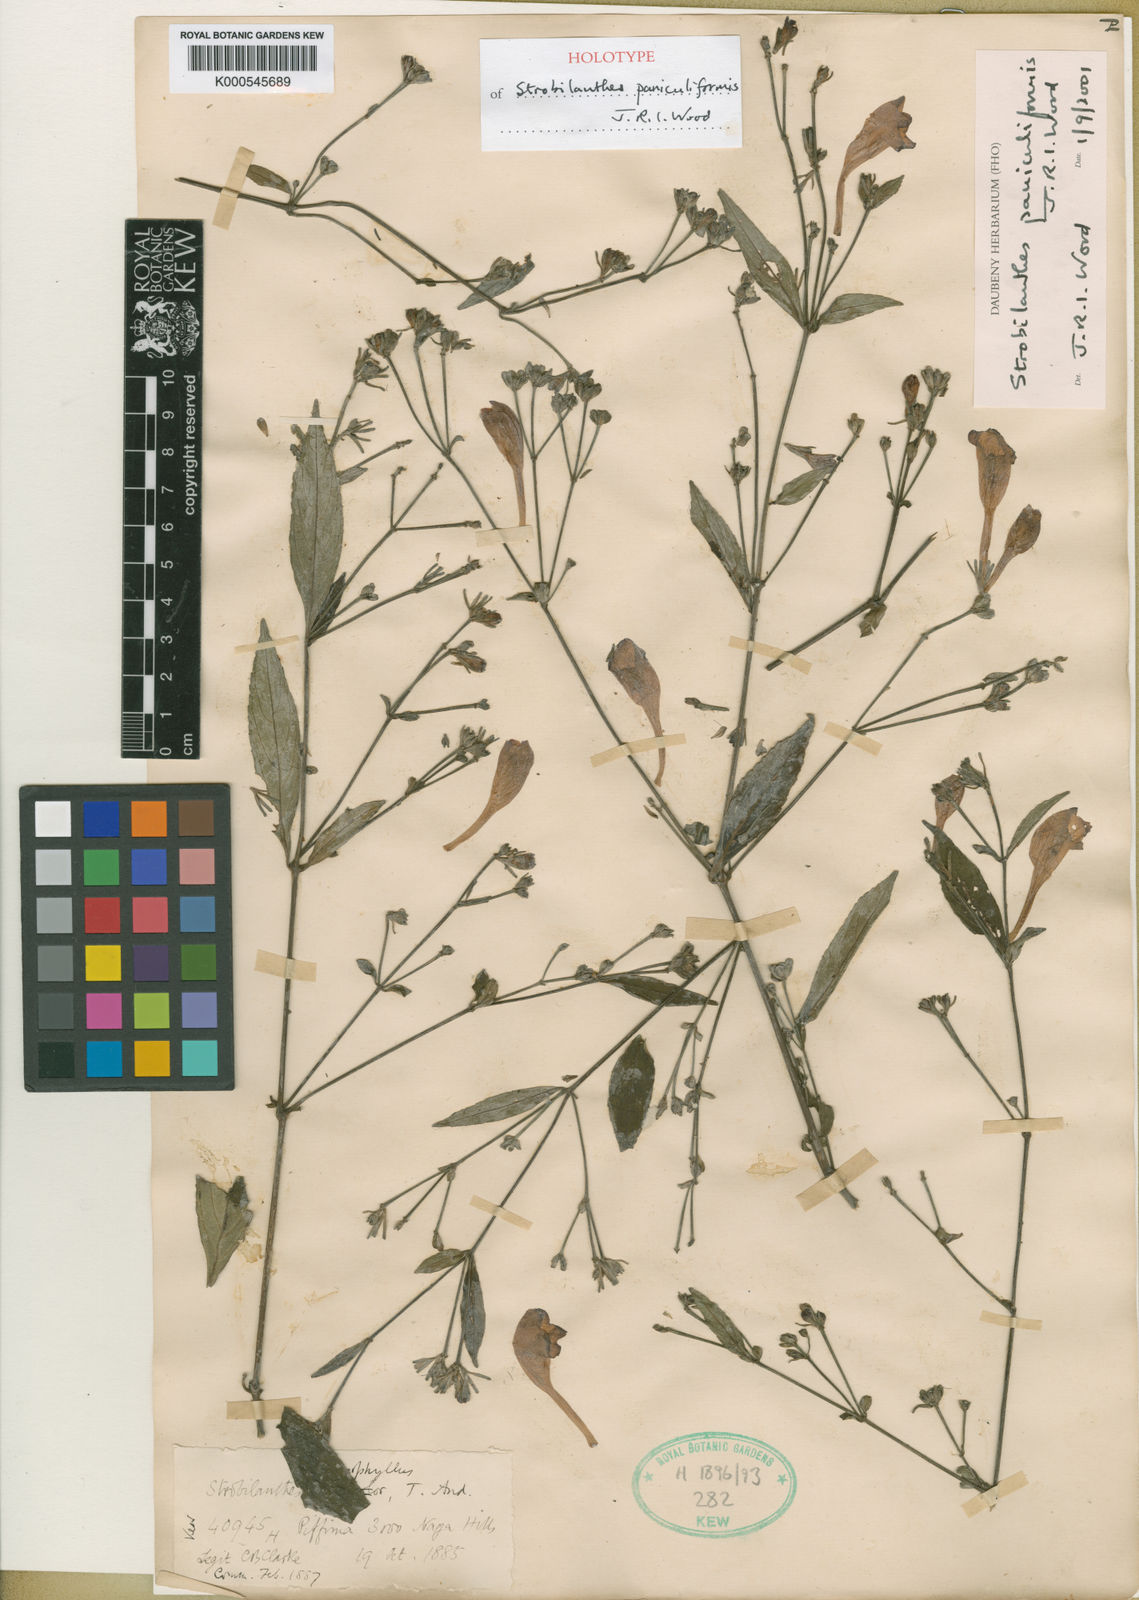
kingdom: Plantae
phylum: Tracheophyta
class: Magnoliopsida
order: Lamiales
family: Acanthaceae
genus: Strobilanthes
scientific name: Strobilanthes paniculiformis
